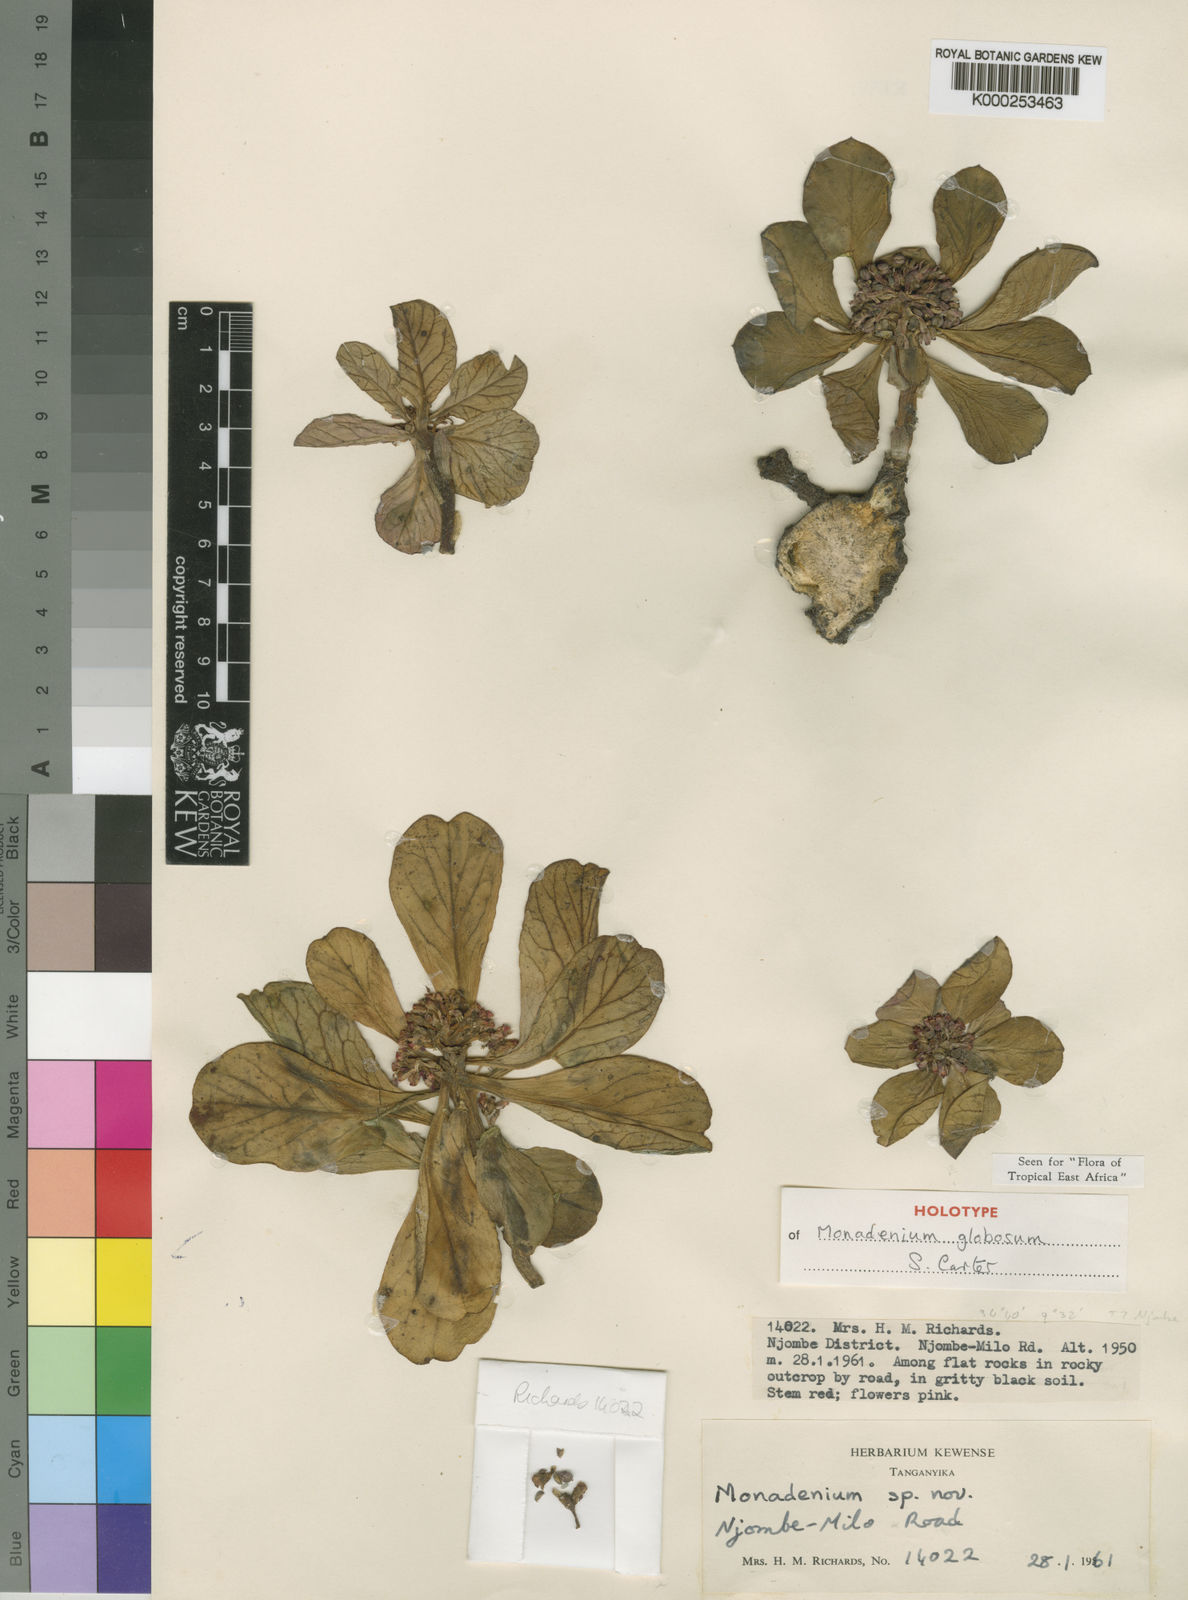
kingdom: Plantae
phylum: Tracheophyta
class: Magnoliopsida
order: Malpighiales
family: Euphorbiaceae
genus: Euphorbia
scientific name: Euphorbia bisglobosa
